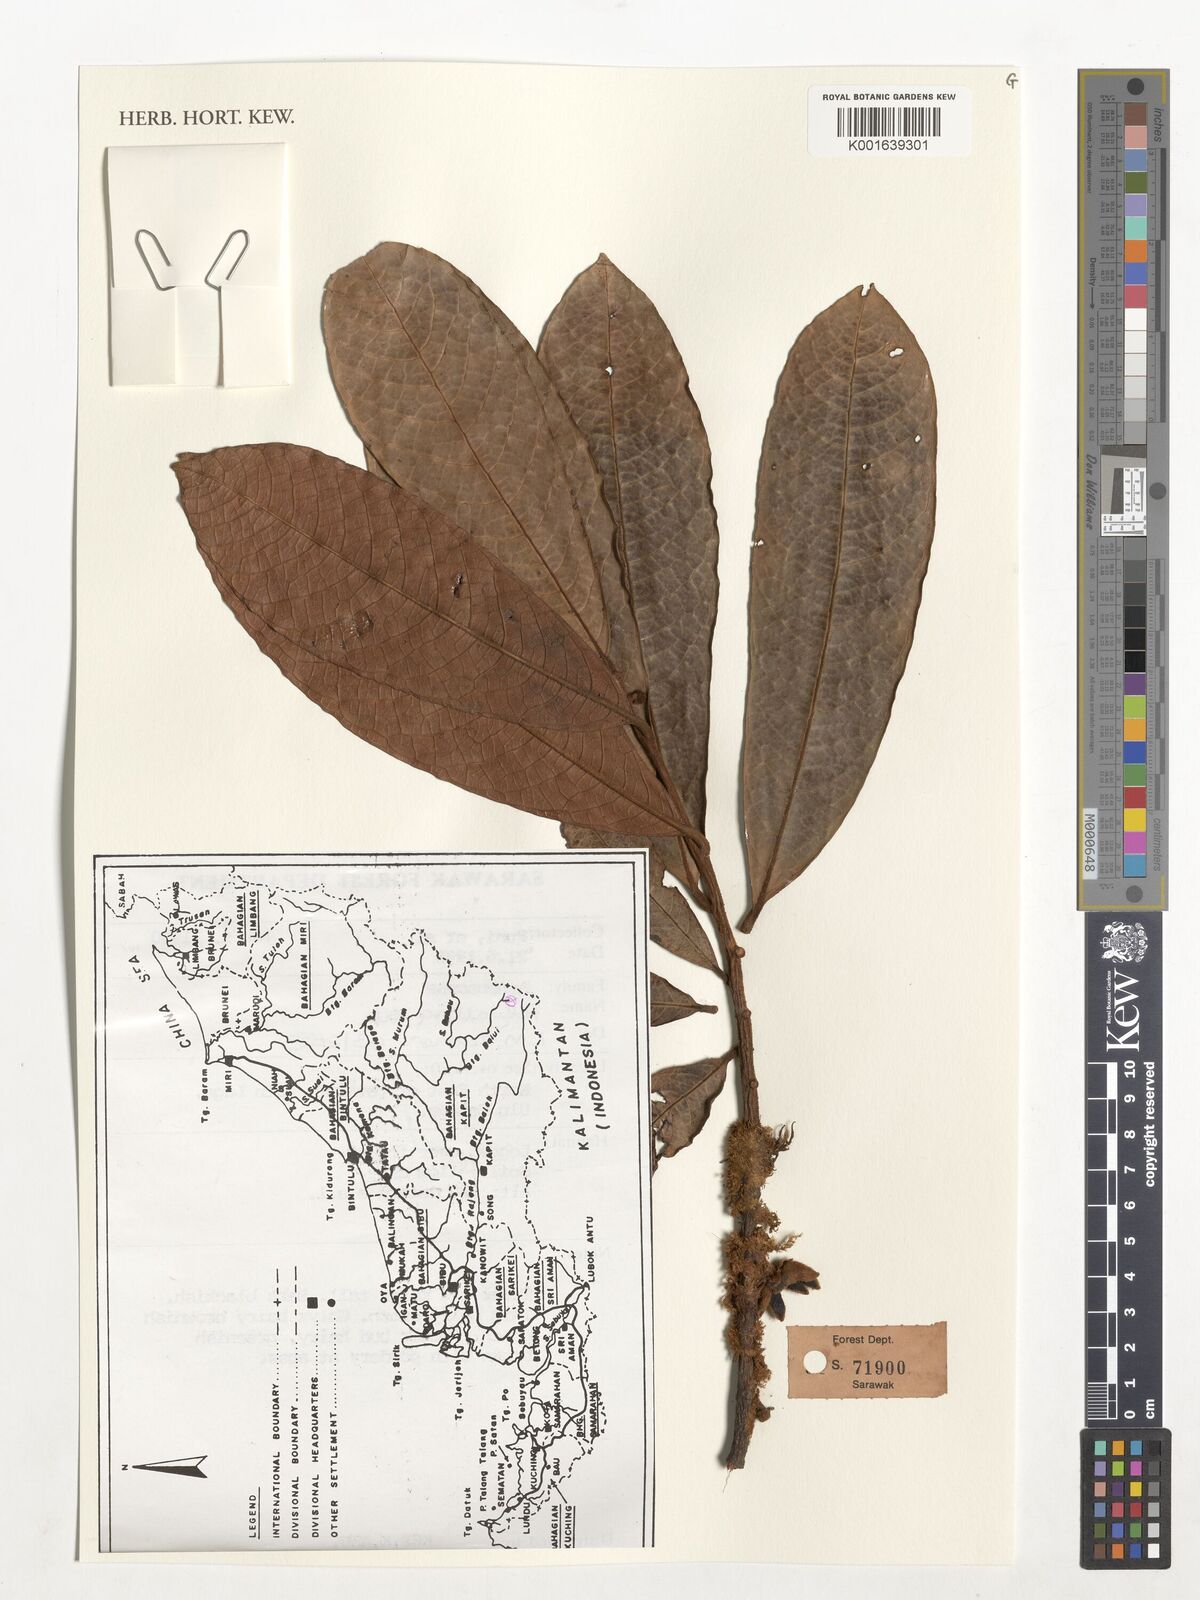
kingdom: Plantae
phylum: Tracheophyta
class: Magnoliopsida
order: Magnoliales
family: Annonaceae
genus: Polyalthia
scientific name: Polyalthia
